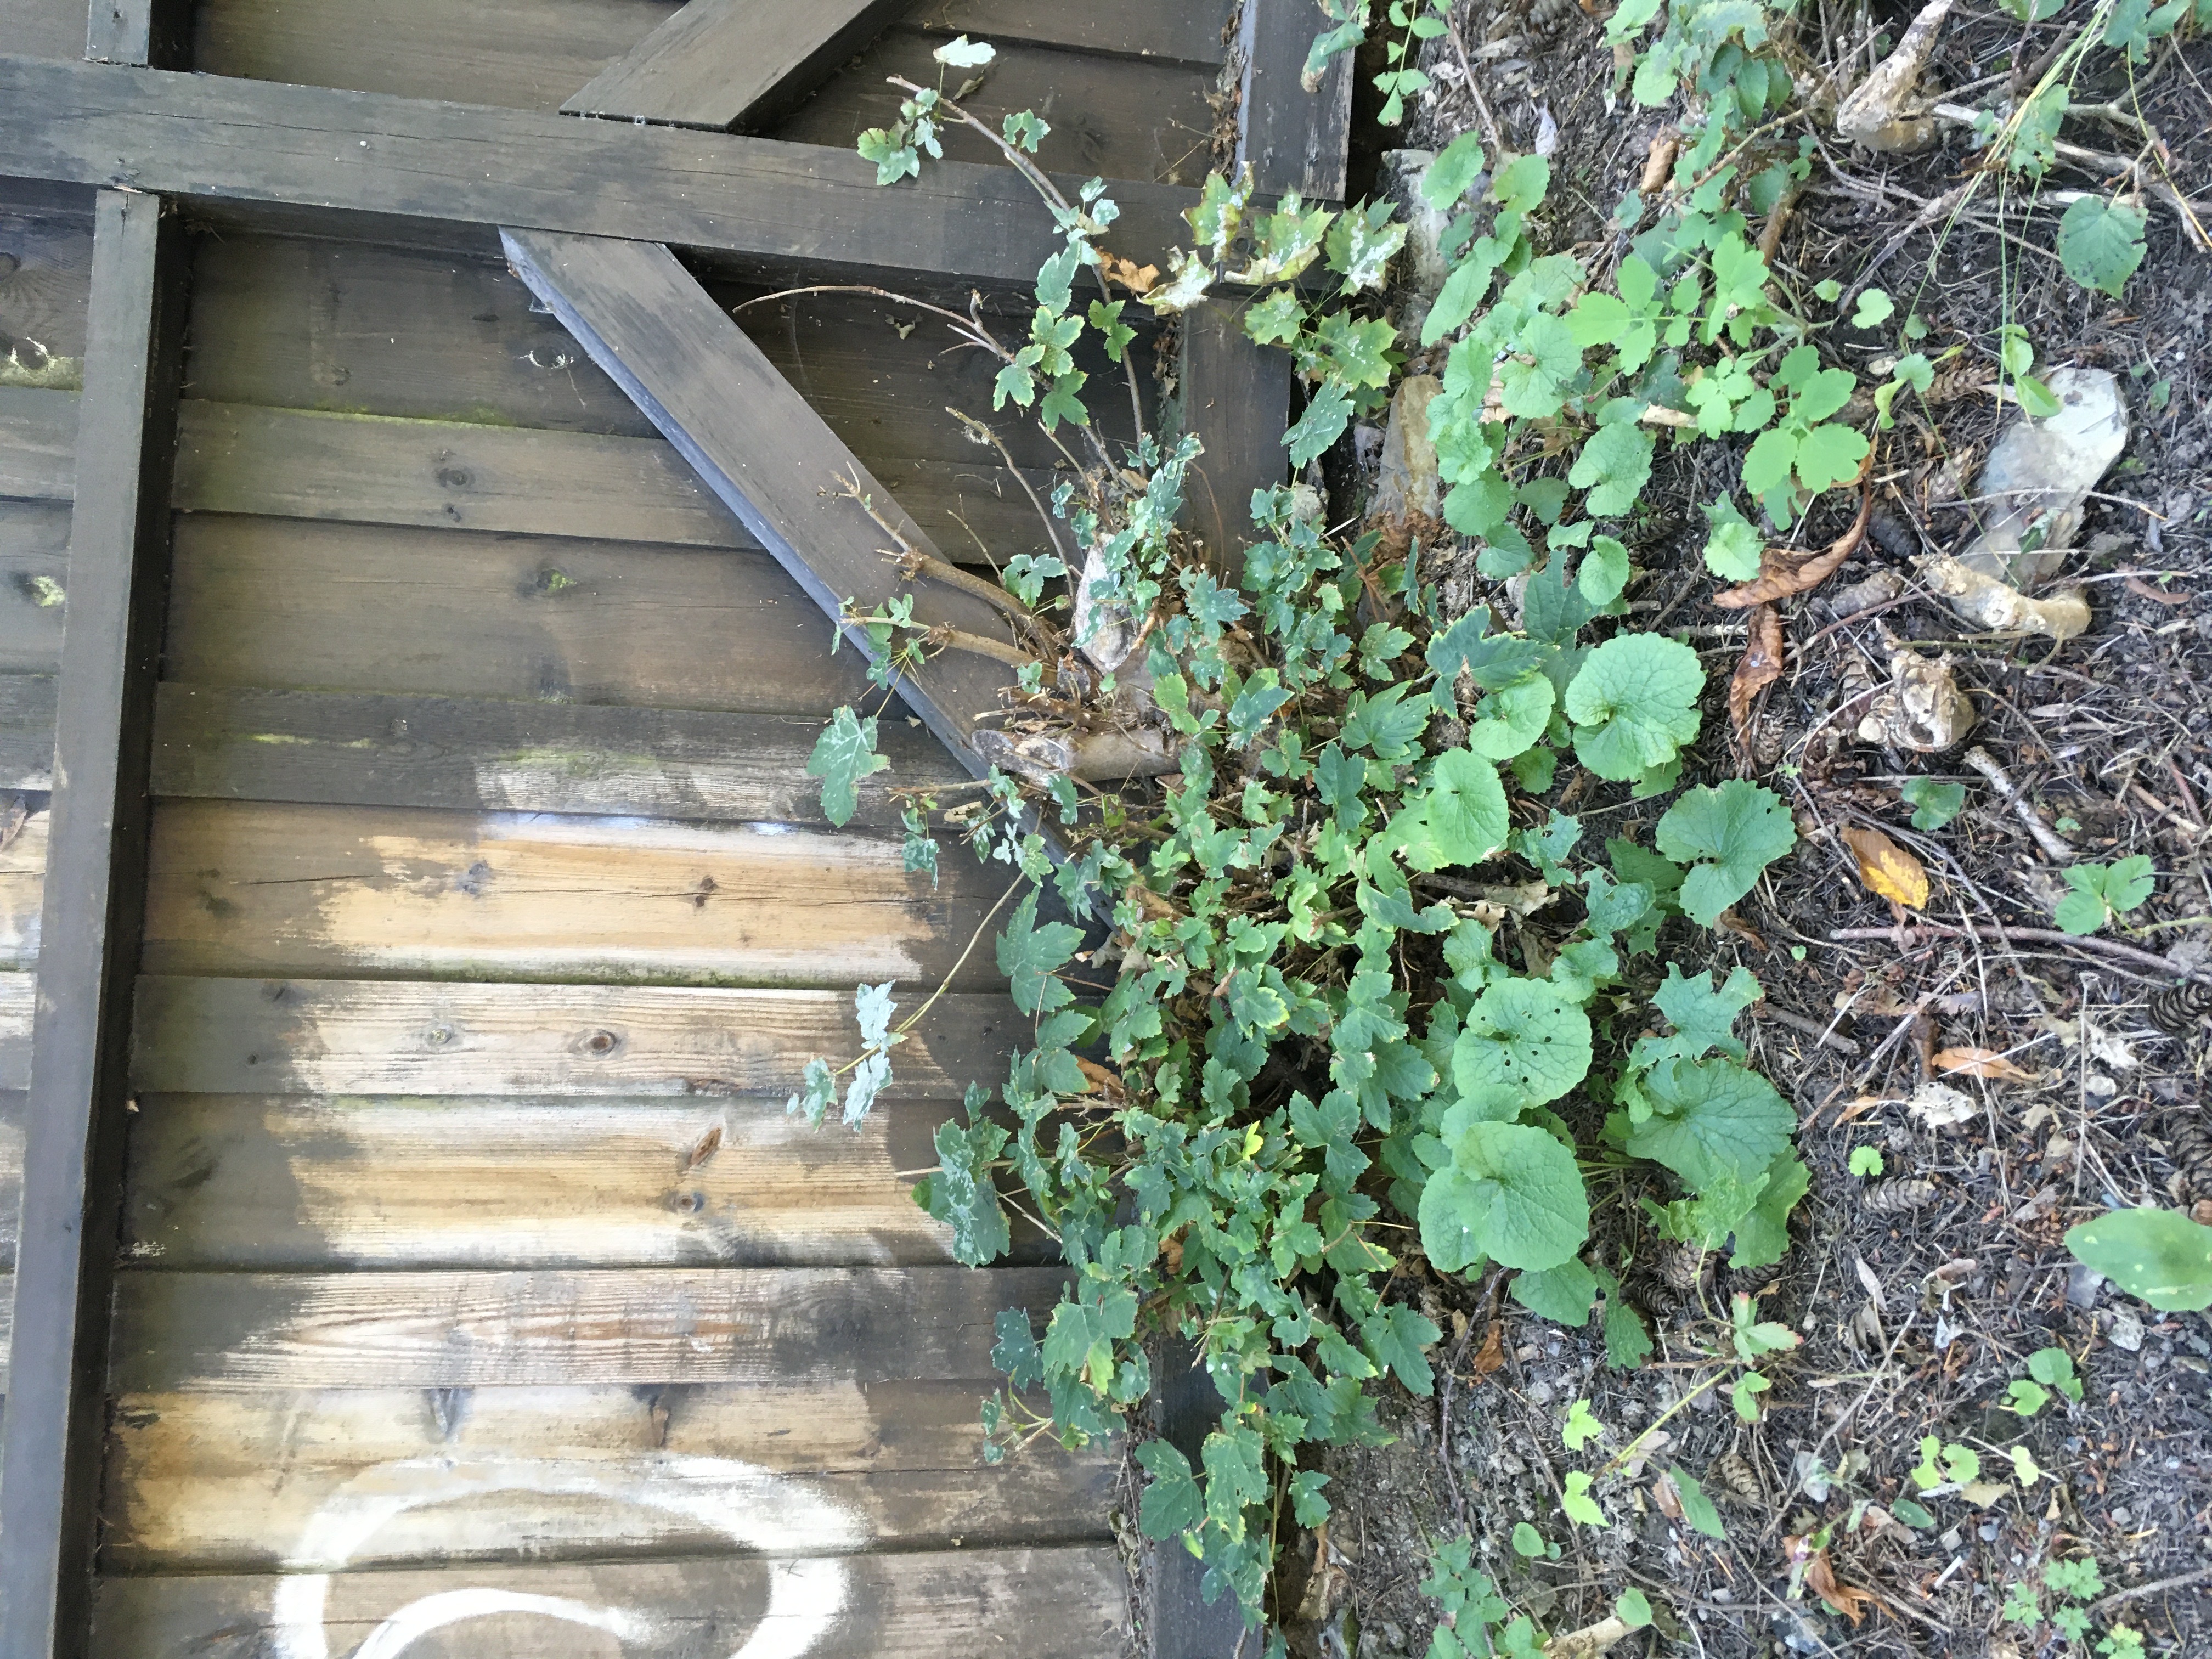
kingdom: Plantae
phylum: Tracheophyta
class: Magnoliopsida
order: Sapindales
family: Sapindaceae
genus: Acer
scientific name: Acer pseudoplatanus
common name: platanlønn
